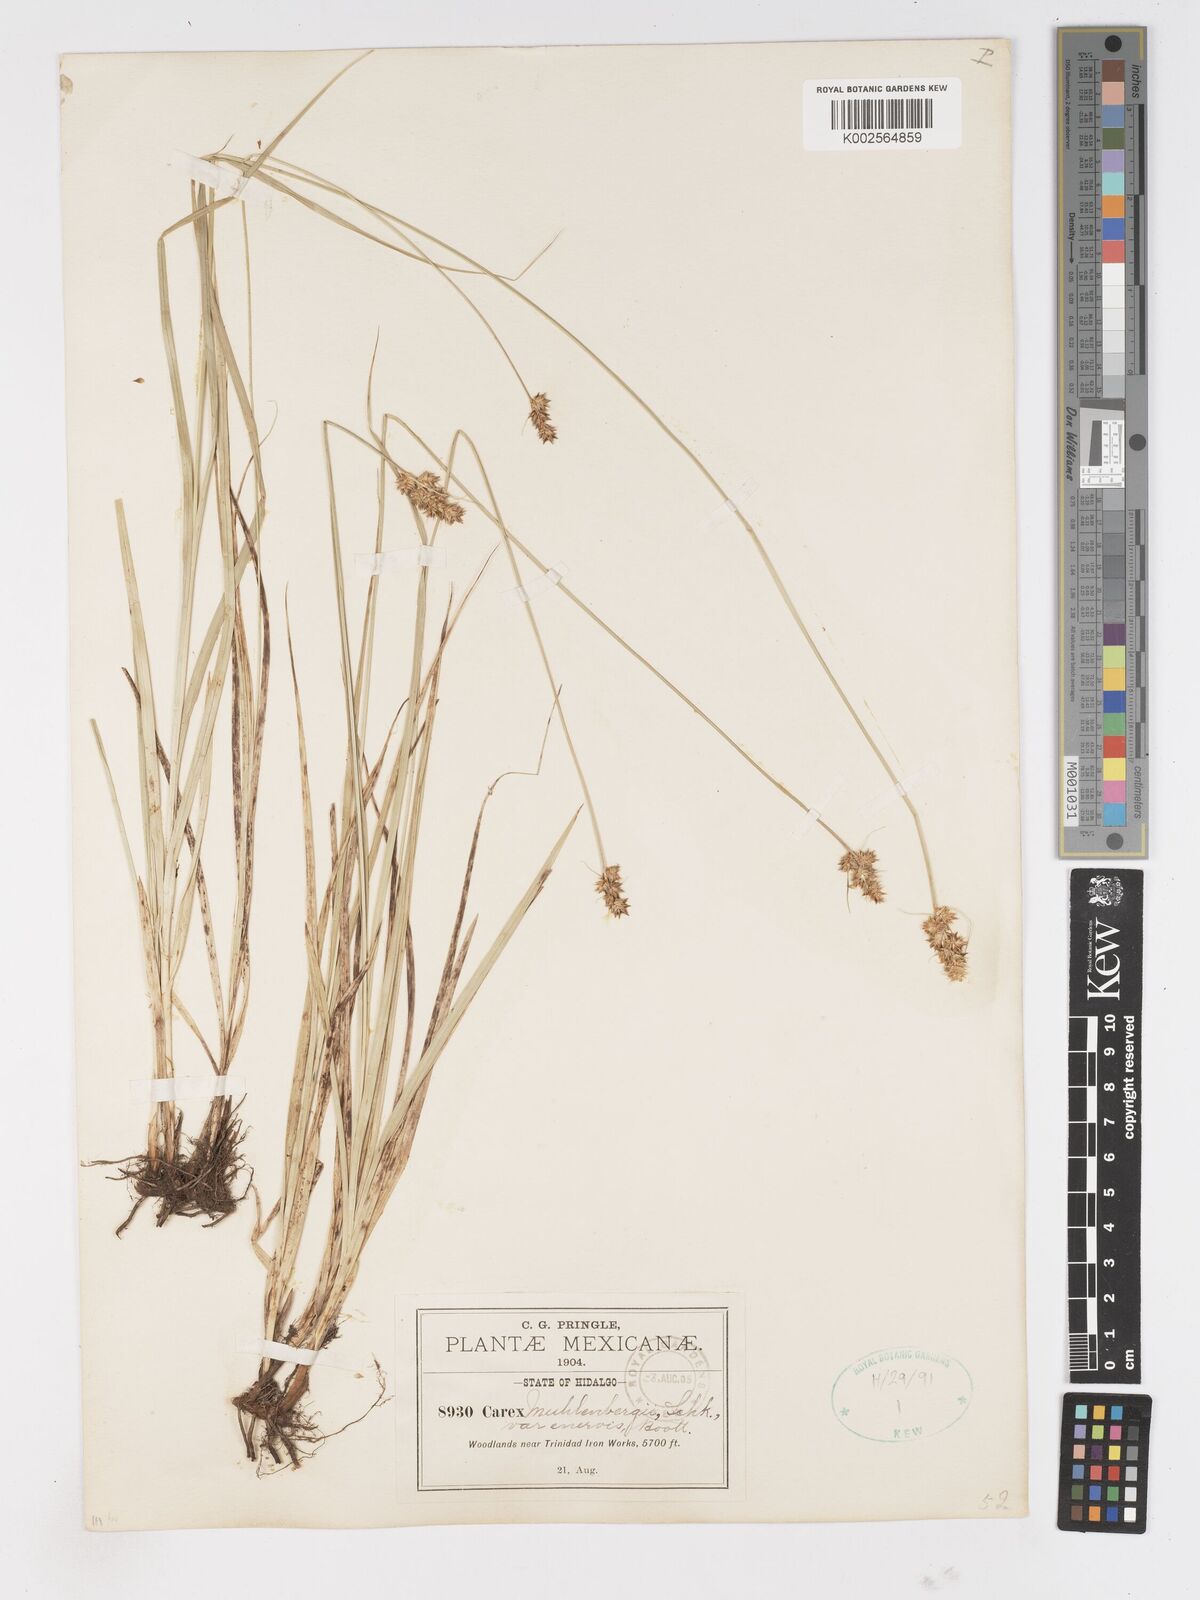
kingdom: Plantae
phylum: Tracheophyta
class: Liliopsida
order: Poales
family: Cyperaceae
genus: Carex
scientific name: Carex vulpinoidea
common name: American fox-sedge
